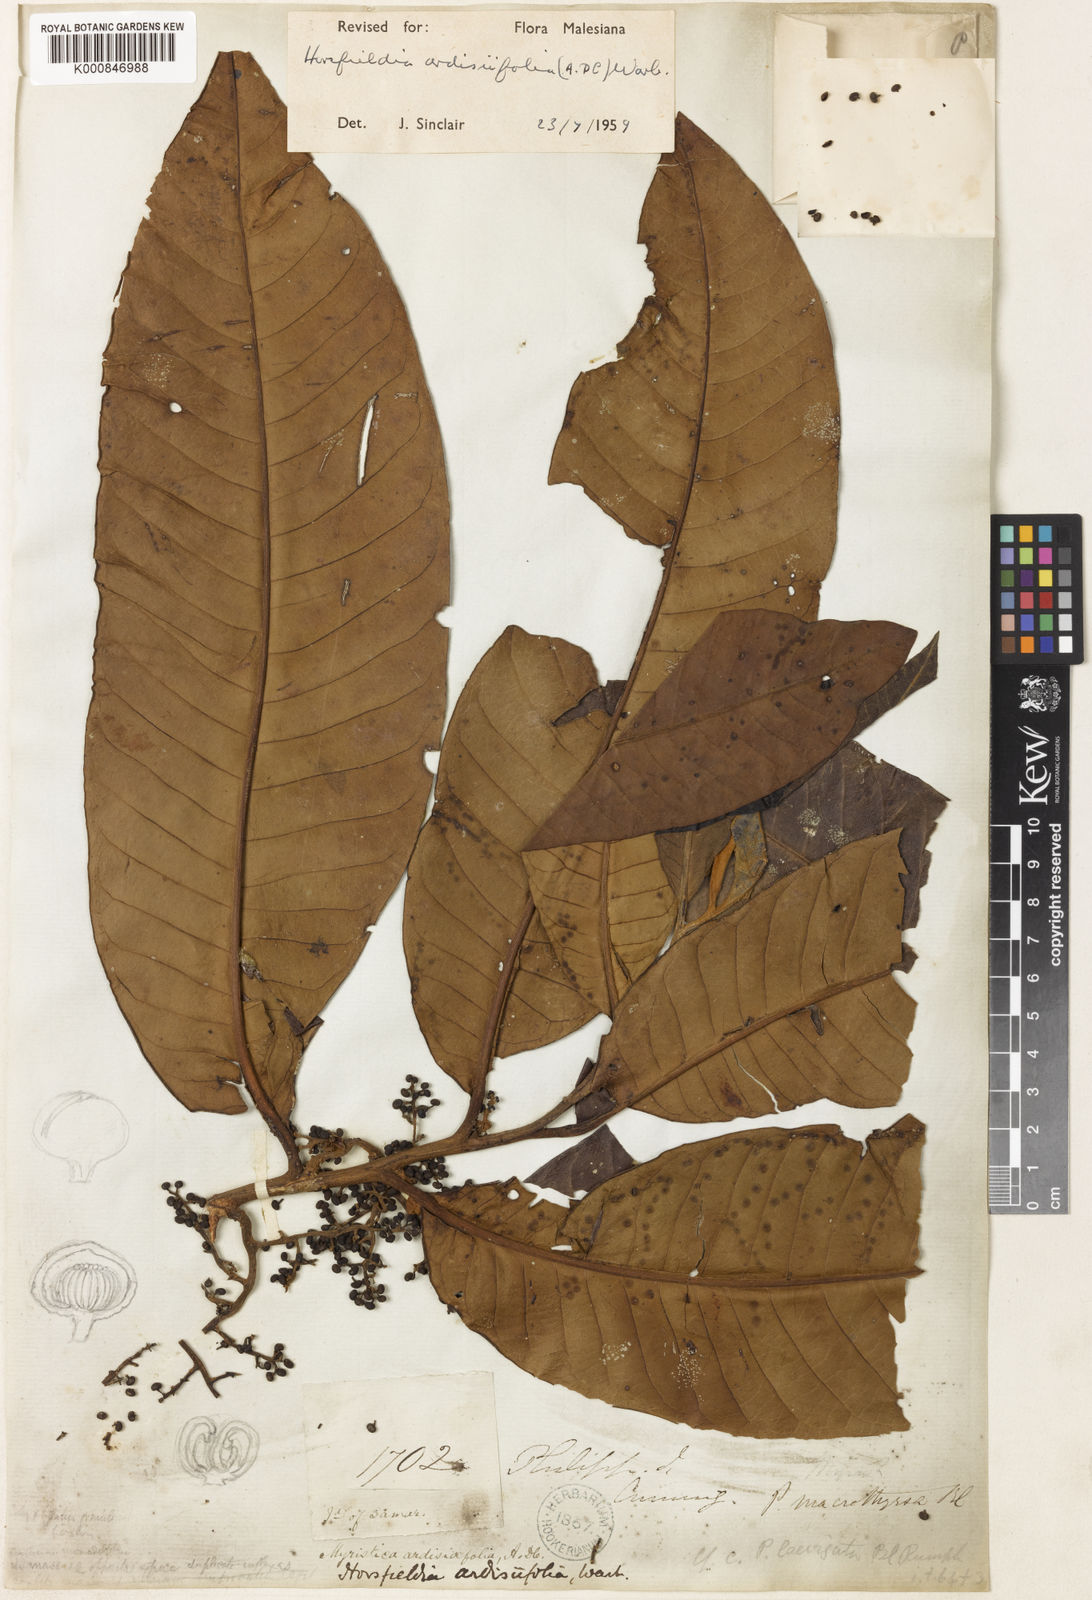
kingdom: Plantae
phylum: Tracheophyta
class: Magnoliopsida
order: Magnoliales
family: Myristicaceae
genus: Horsfieldia
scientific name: Horsfieldia ardisiifolia
